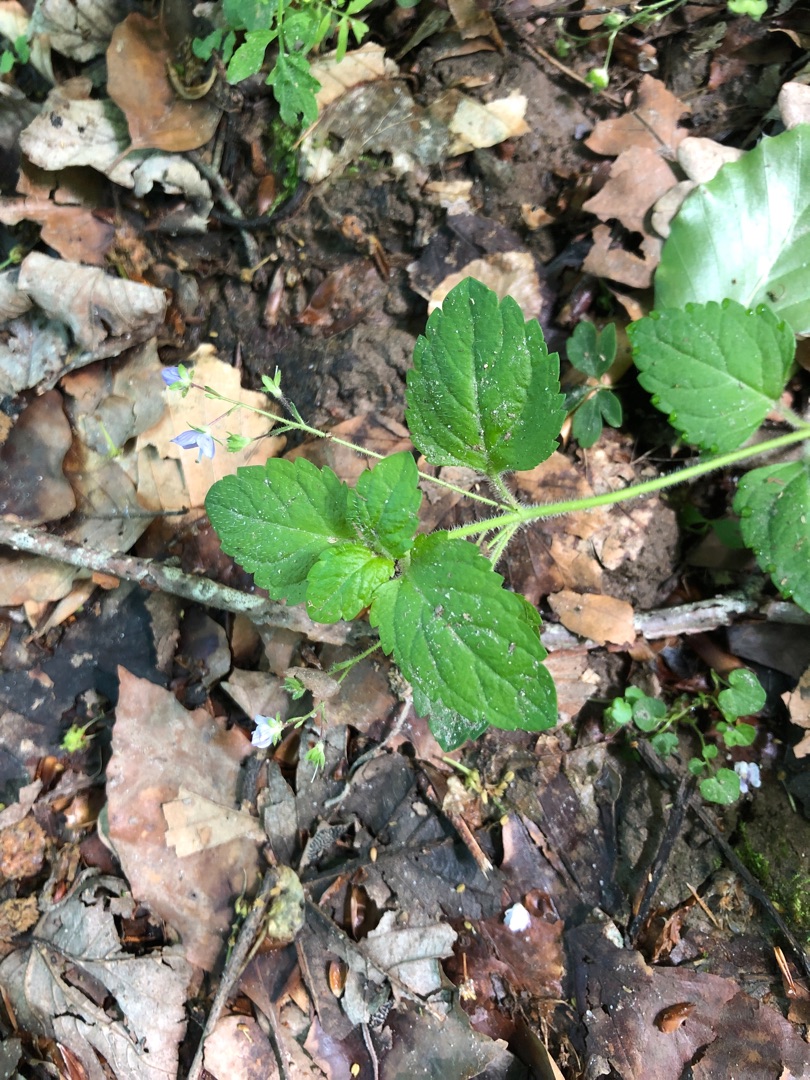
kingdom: Plantae
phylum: Tracheophyta
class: Magnoliopsida
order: Lamiales
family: Plantaginaceae
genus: Veronica
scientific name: Veronica montana
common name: Bjerg-ærenpris
